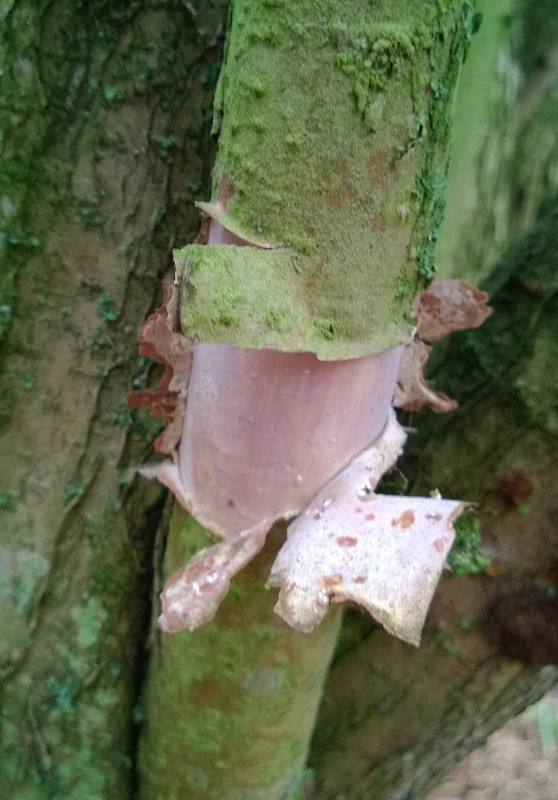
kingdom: Fungi
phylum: Basidiomycota
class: Agaricomycetes
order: Corticiales
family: Vuilleminiaceae
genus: Vuilleminia
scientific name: Vuilleminia coryli
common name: hassel-barksprænger
